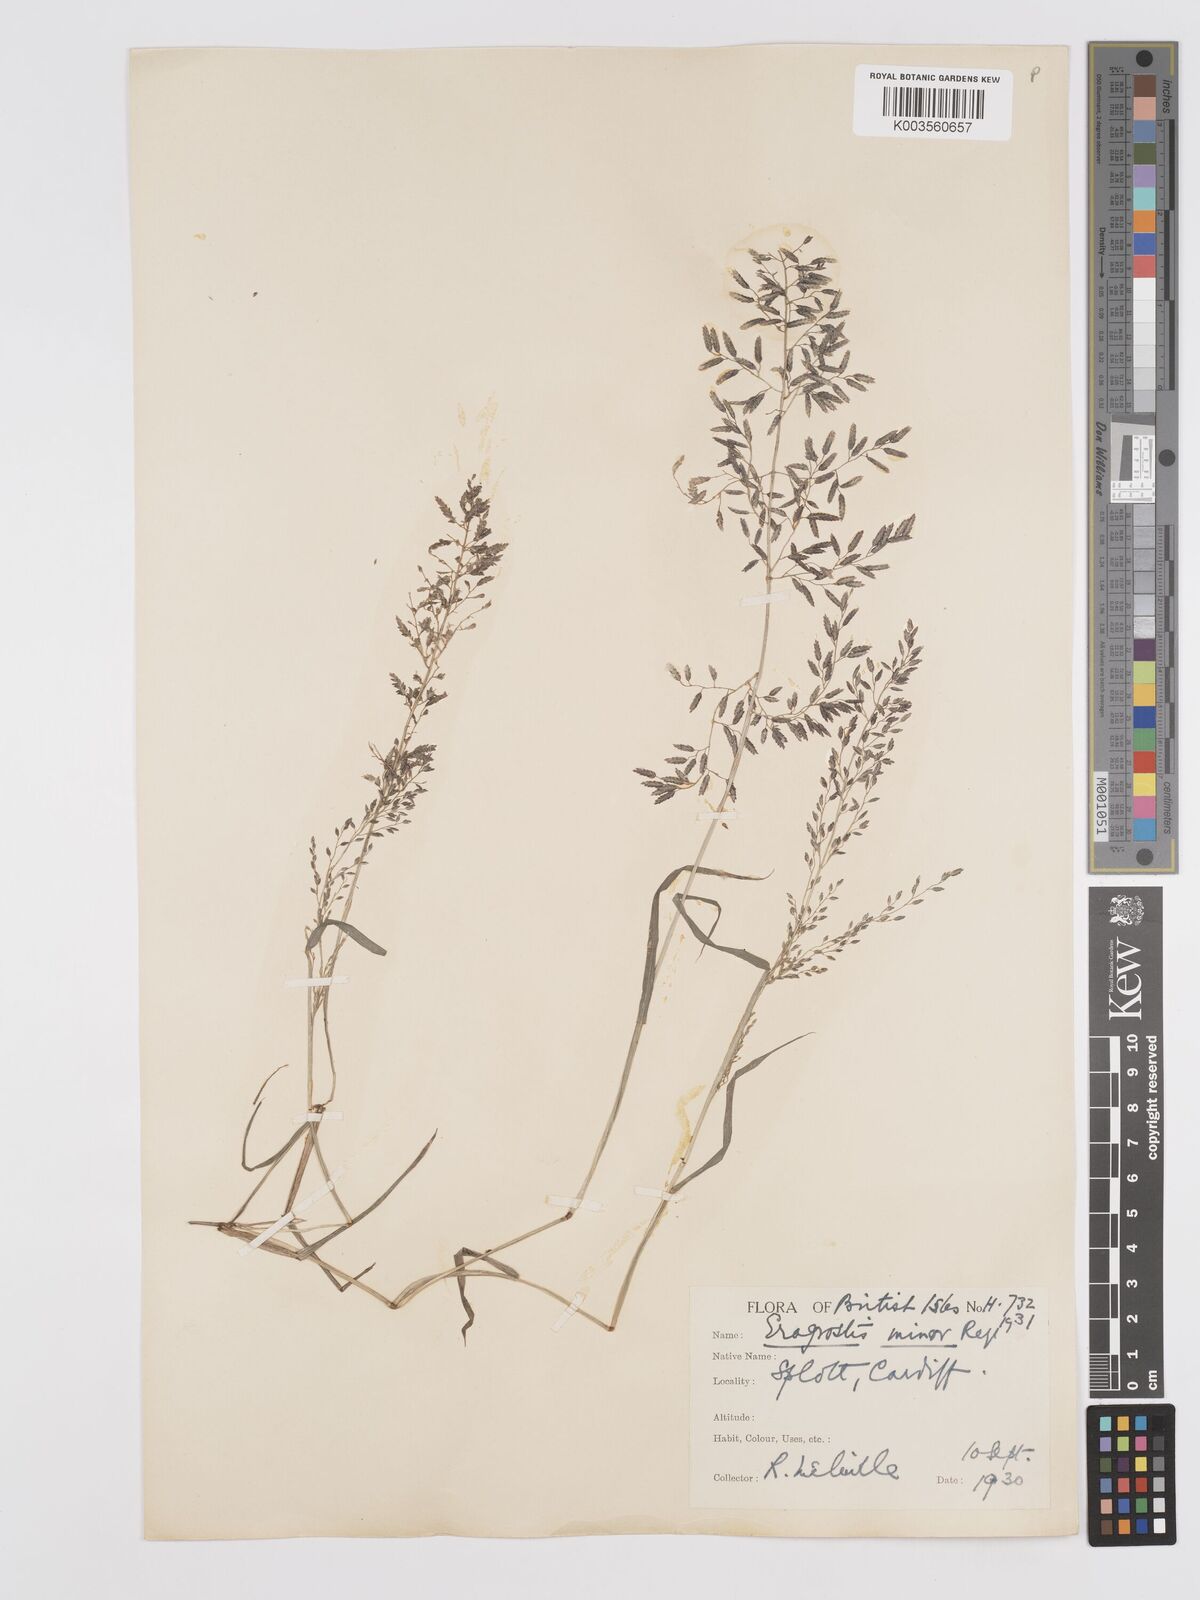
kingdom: Plantae
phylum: Tracheophyta
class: Liliopsida
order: Poales
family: Poaceae
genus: Eragrostis
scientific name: Eragrostis minor
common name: Small love-grass
